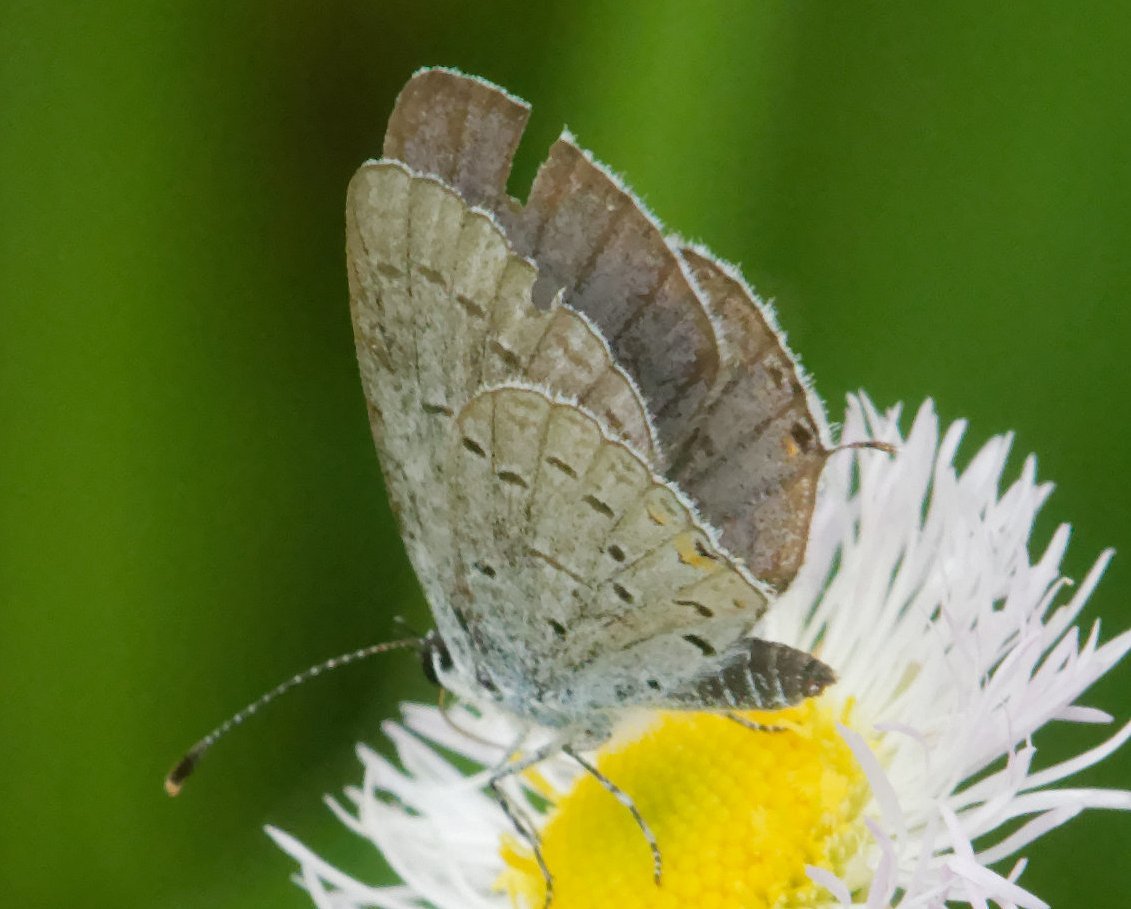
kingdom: Animalia
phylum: Arthropoda
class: Insecta
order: Lepidoptera
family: Lycaenidae
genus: Elkalyce
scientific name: Elkalyce comyntas
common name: Eastern Tailed-Blue
